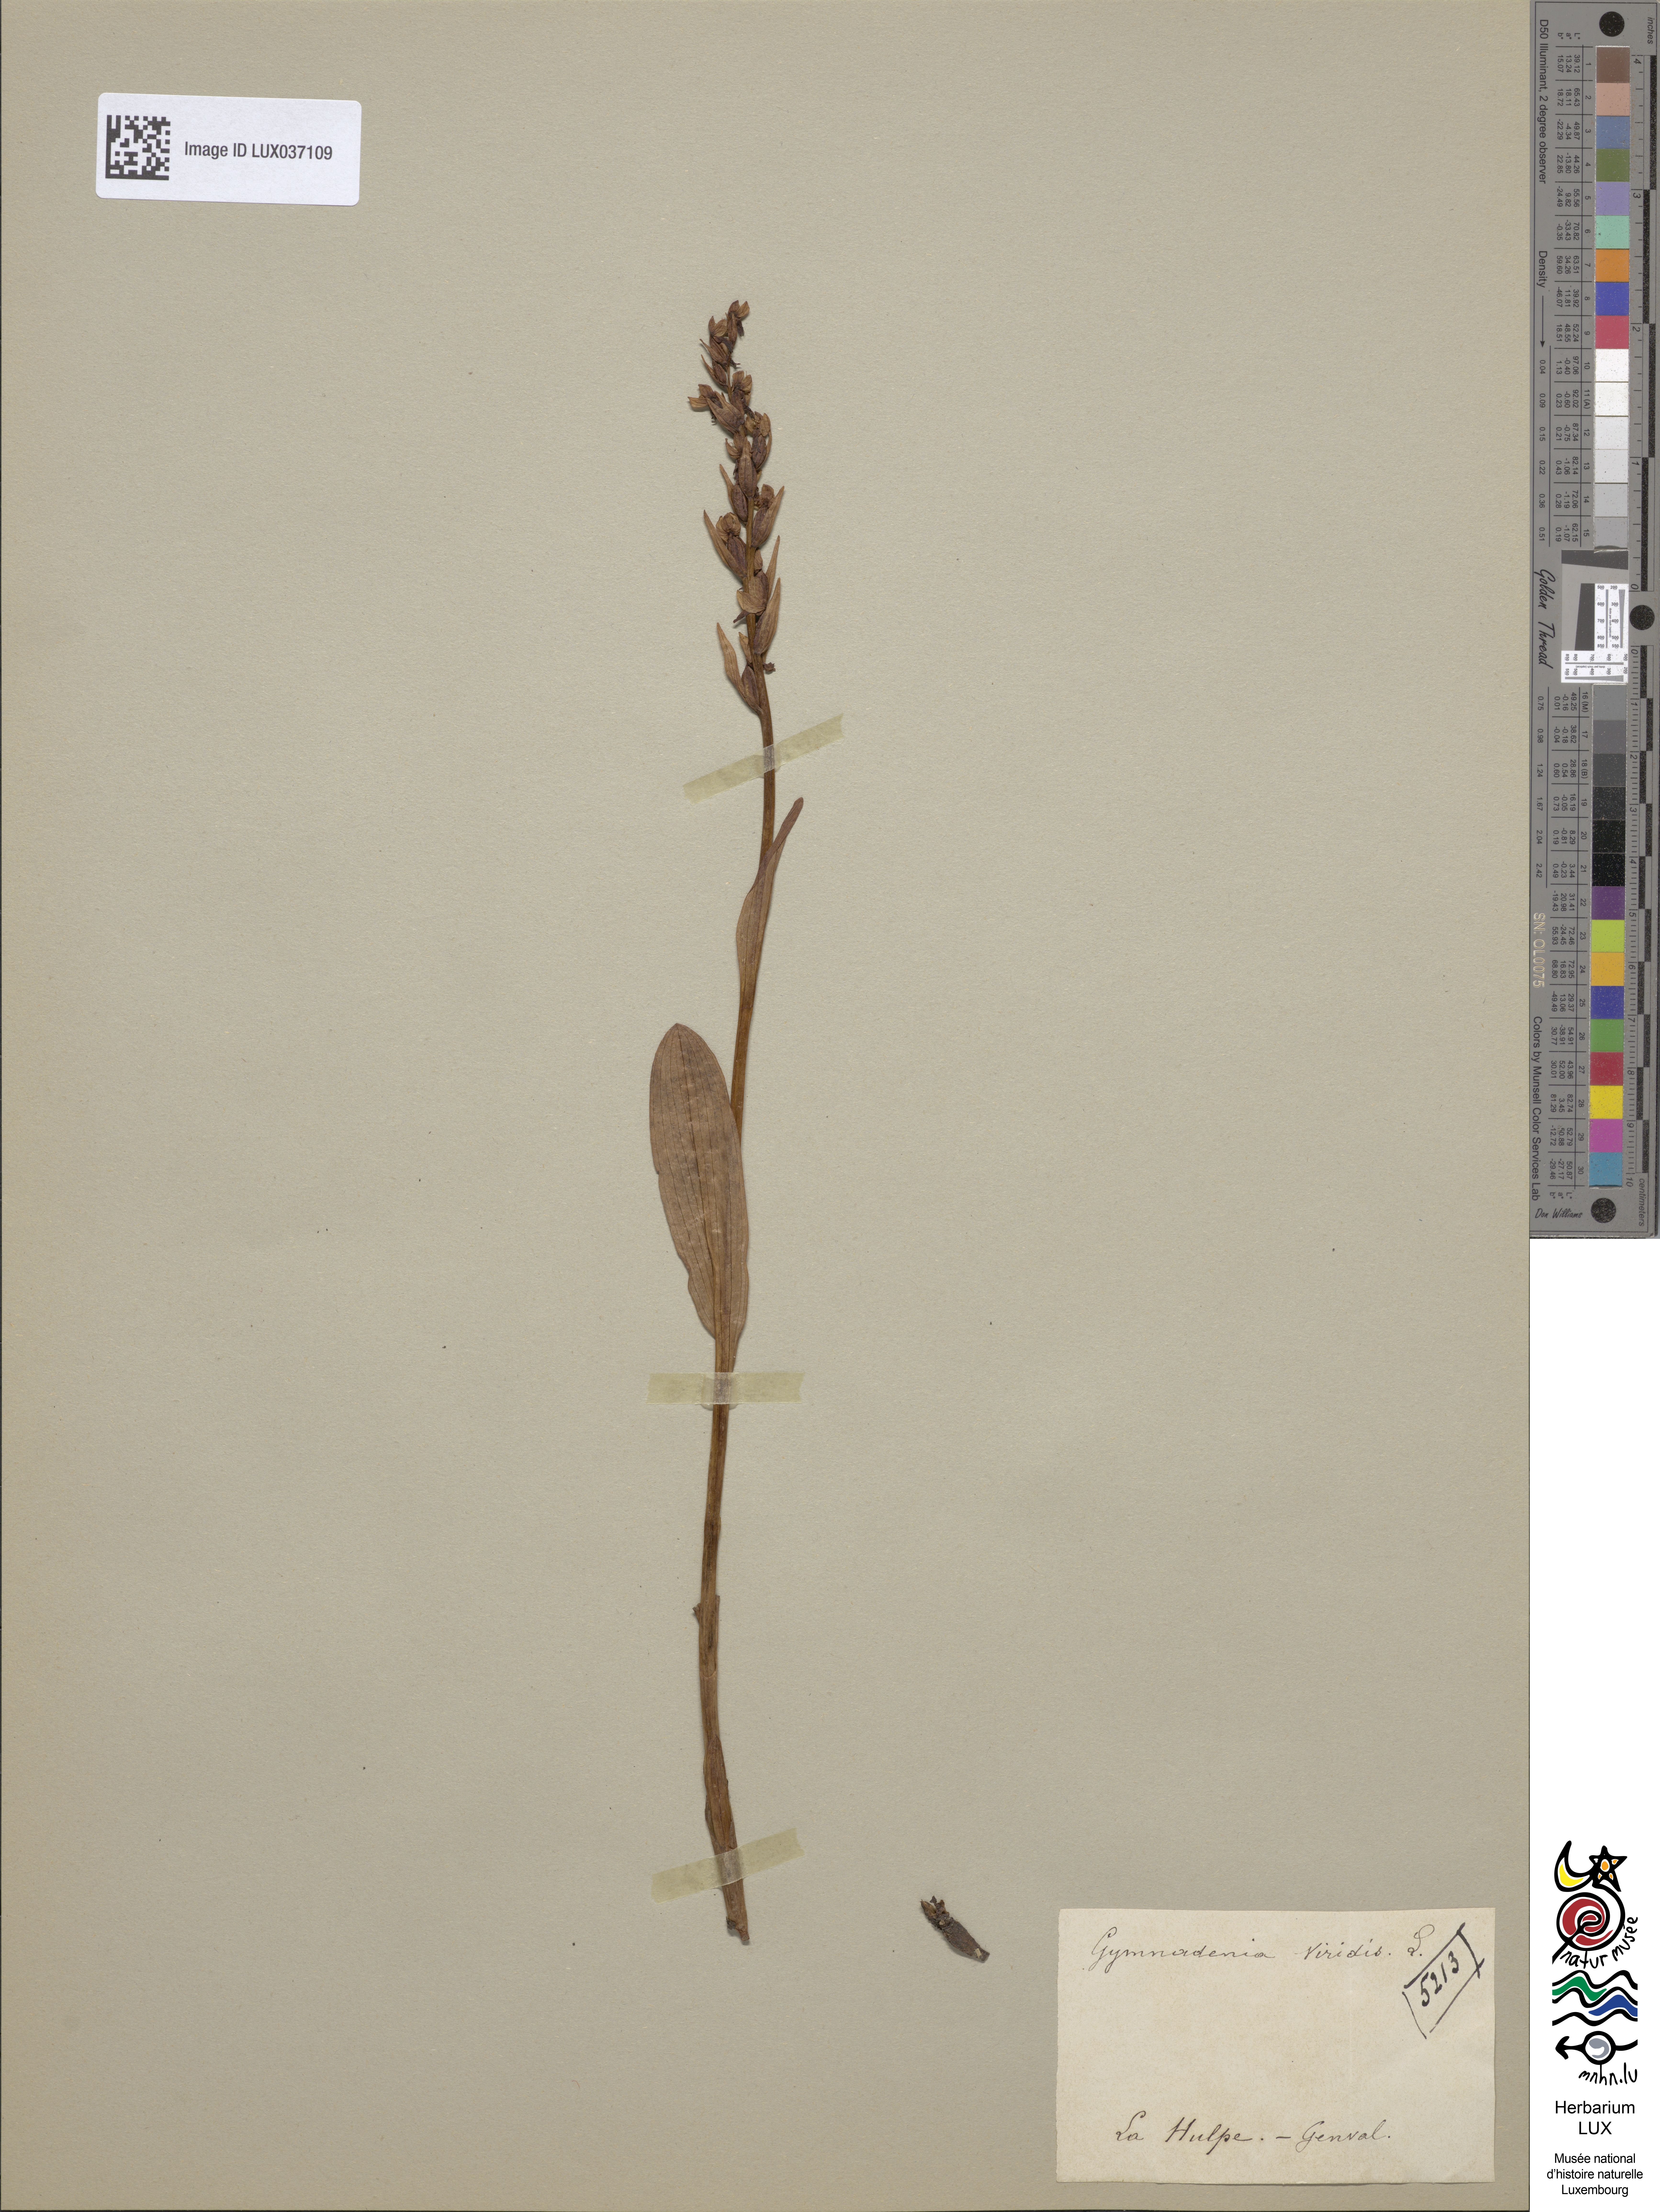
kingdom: Plantae
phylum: Tracheophyta
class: Liliopsida
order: Asparagales
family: Orchidaceae
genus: Dactylorhiza
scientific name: Dactylorhiza viridis
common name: Longbract frog orchid
